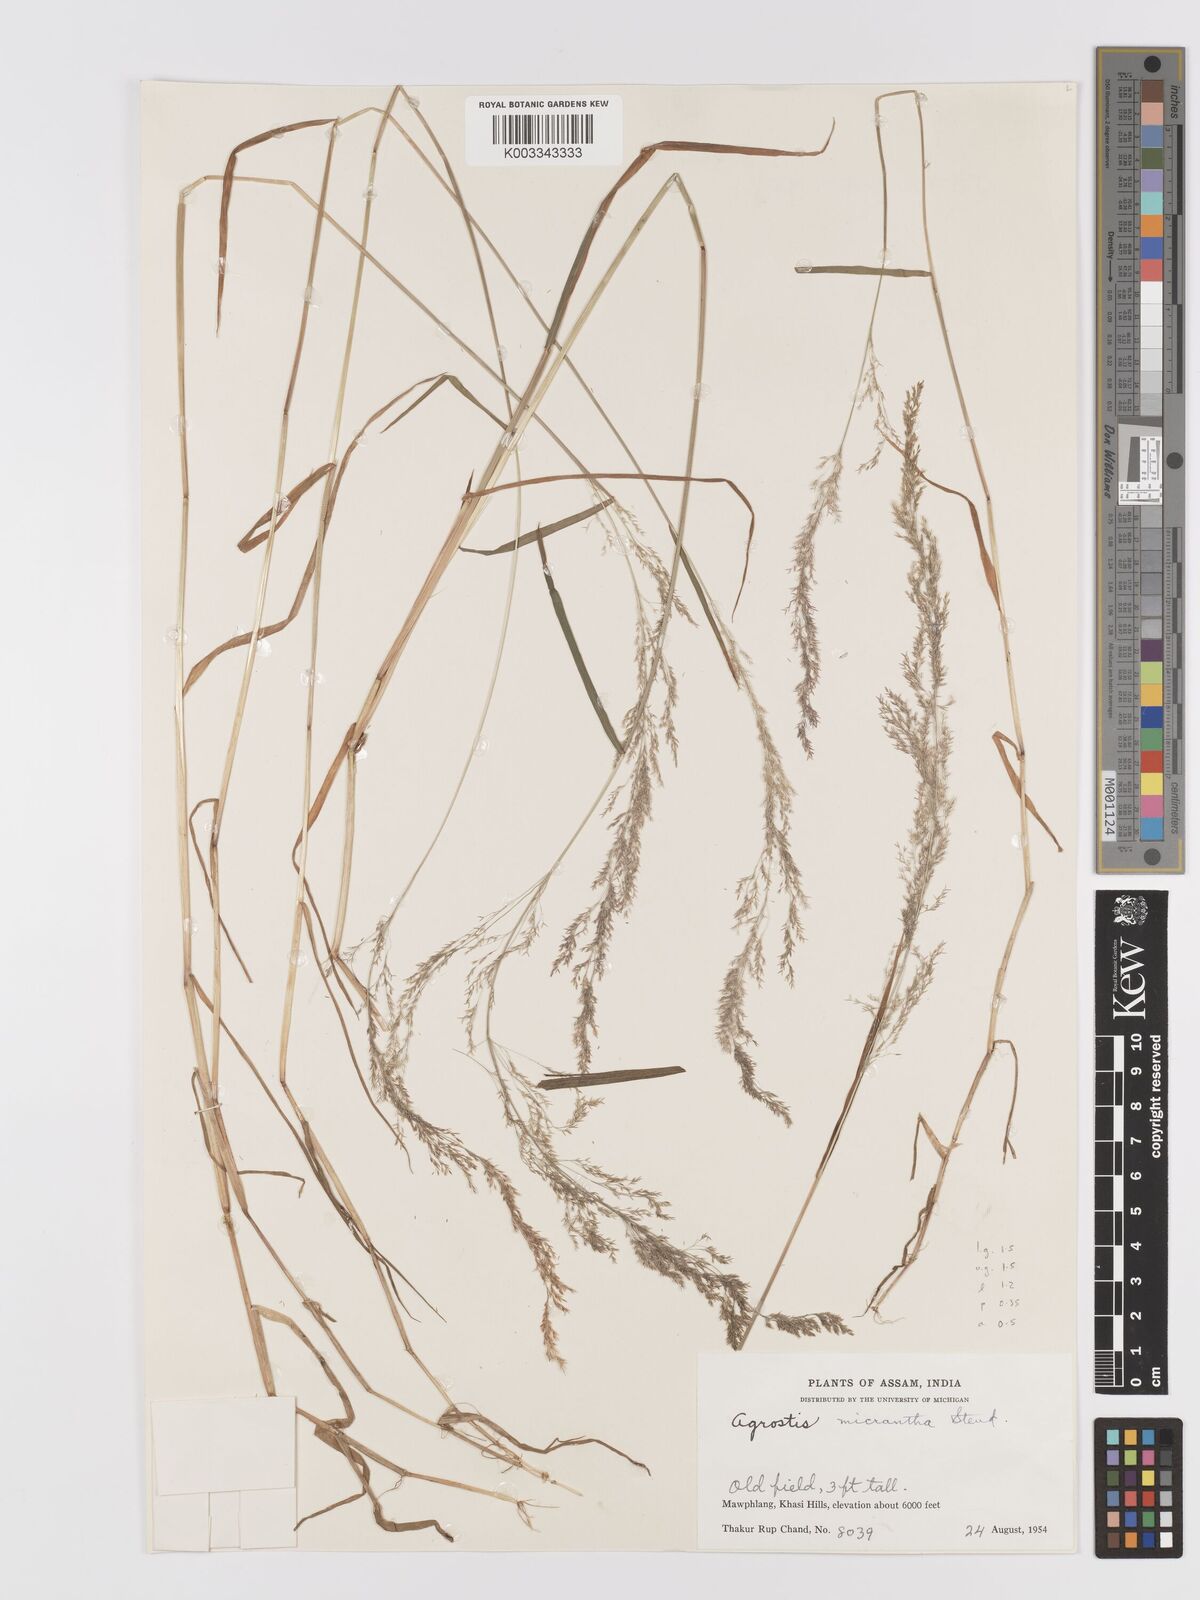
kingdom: Plantae
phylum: Tracheophyta
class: Liliopsida
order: Poales
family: Poaceae
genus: Agrostis
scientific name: Agrostis micrantha
